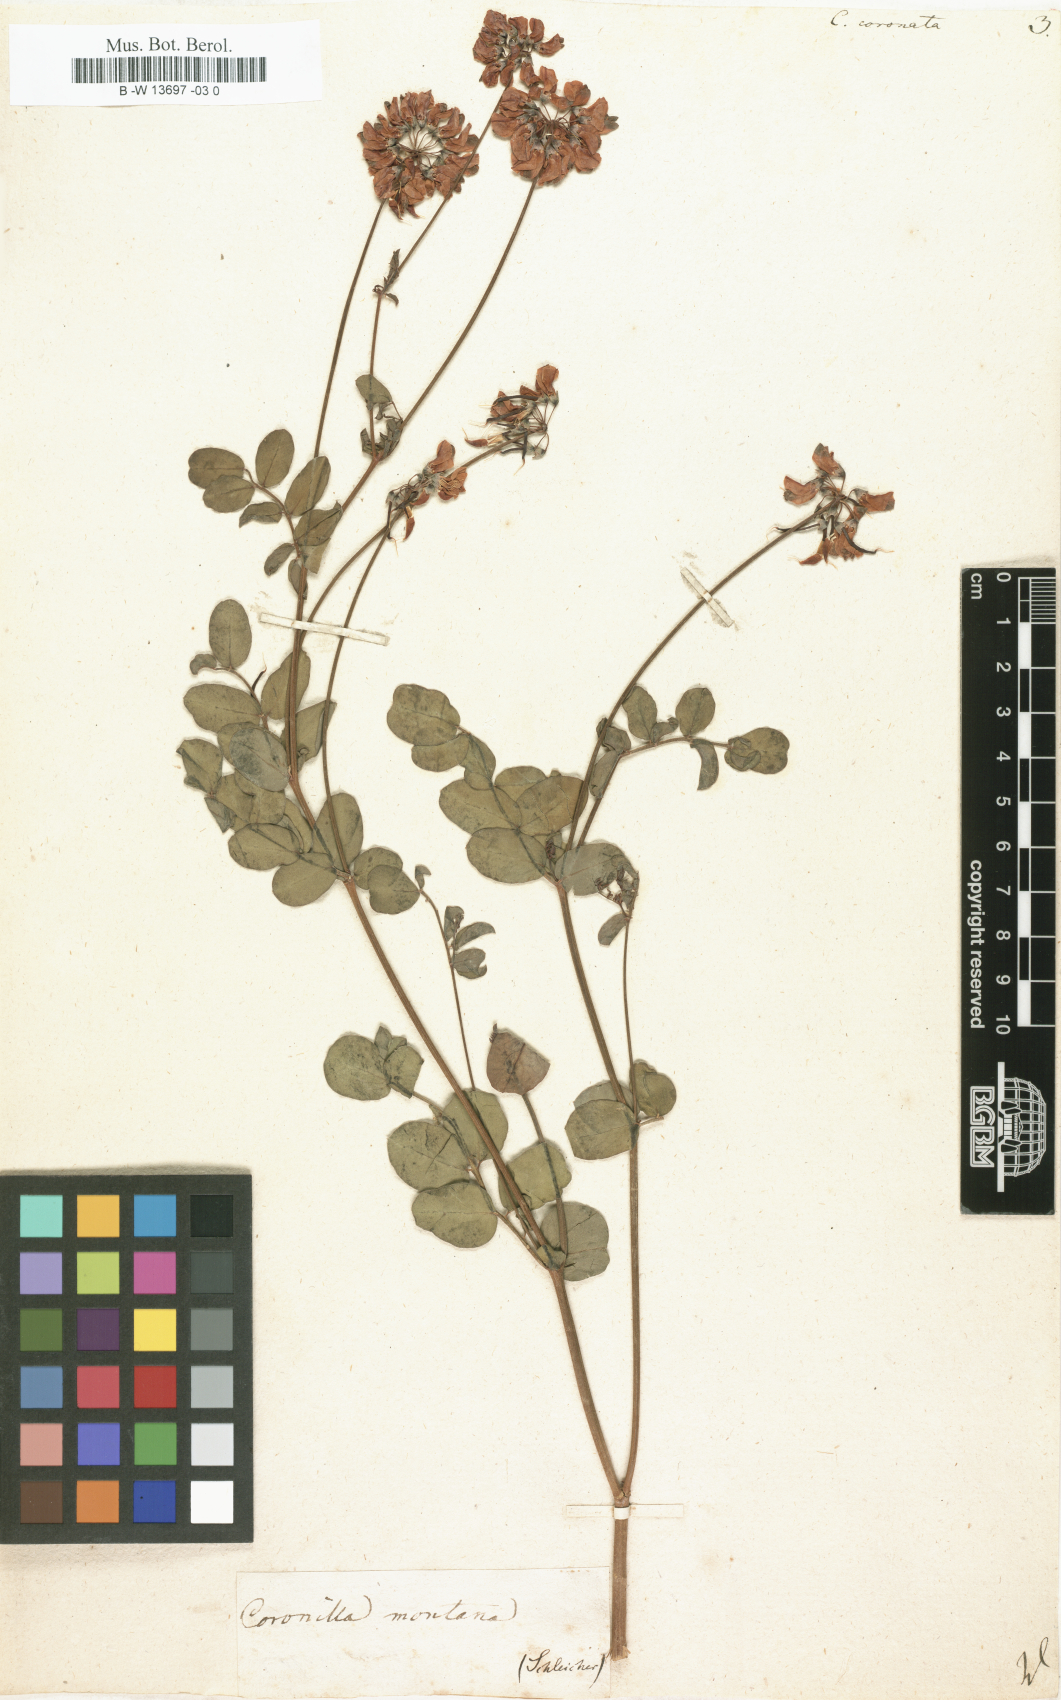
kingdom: Plantae
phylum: Tracheophyta
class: Magnoliopsida
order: Fabales
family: Fabaceae
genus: Coronilla
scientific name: Coronilla coronata
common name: Scorpion-vetch
